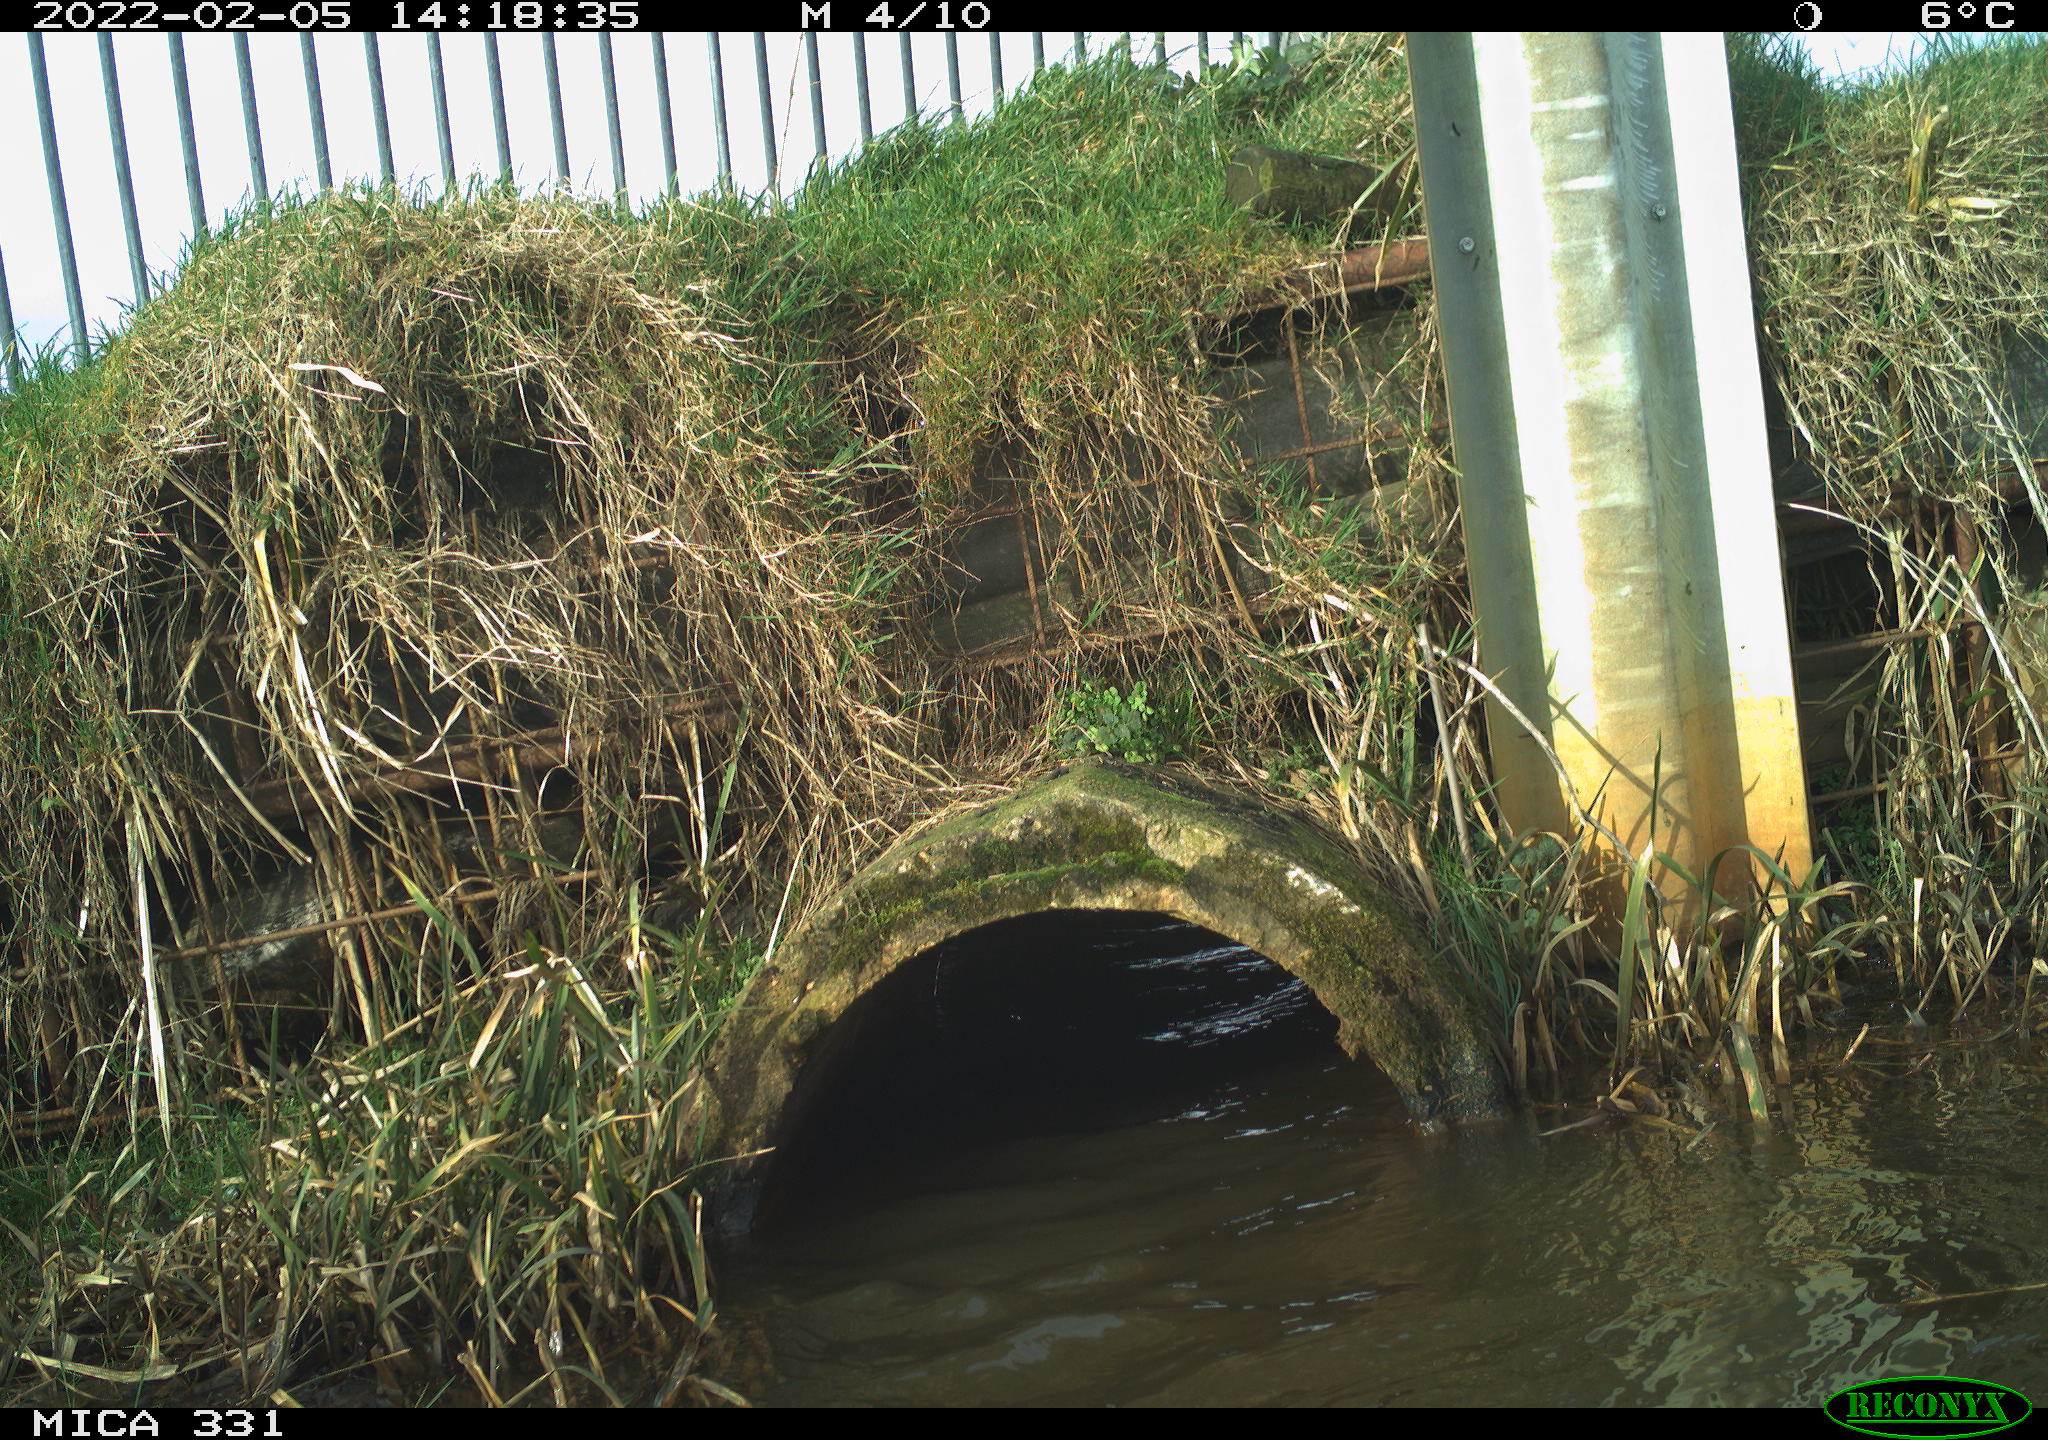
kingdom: Animalia
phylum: Chordata
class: Aves
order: Pelecaniformes
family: Ardeidae
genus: Ardea
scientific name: Ardea alba
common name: Great egret
